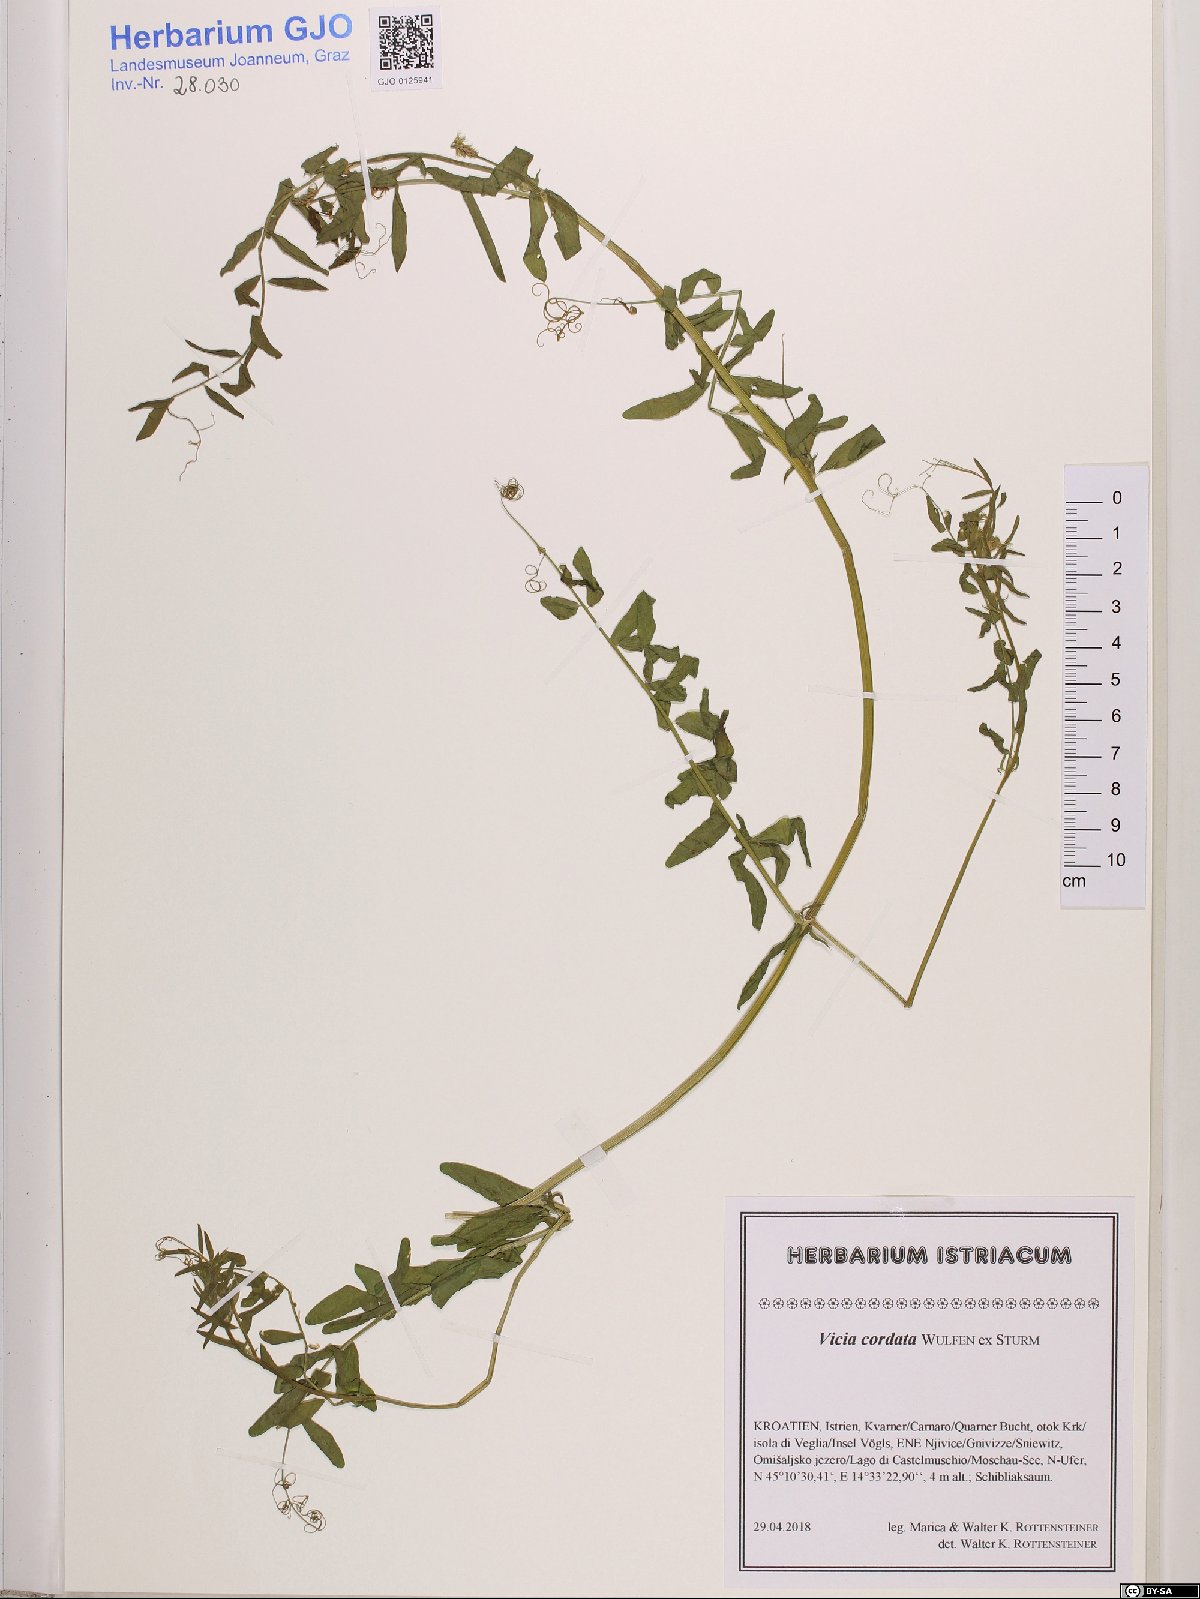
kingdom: Plantae
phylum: Tracheophyta
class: Magnoliopsida
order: Fabales
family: Fabaceae
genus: Vicia
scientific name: Vicia sativa
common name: Garden vetch
